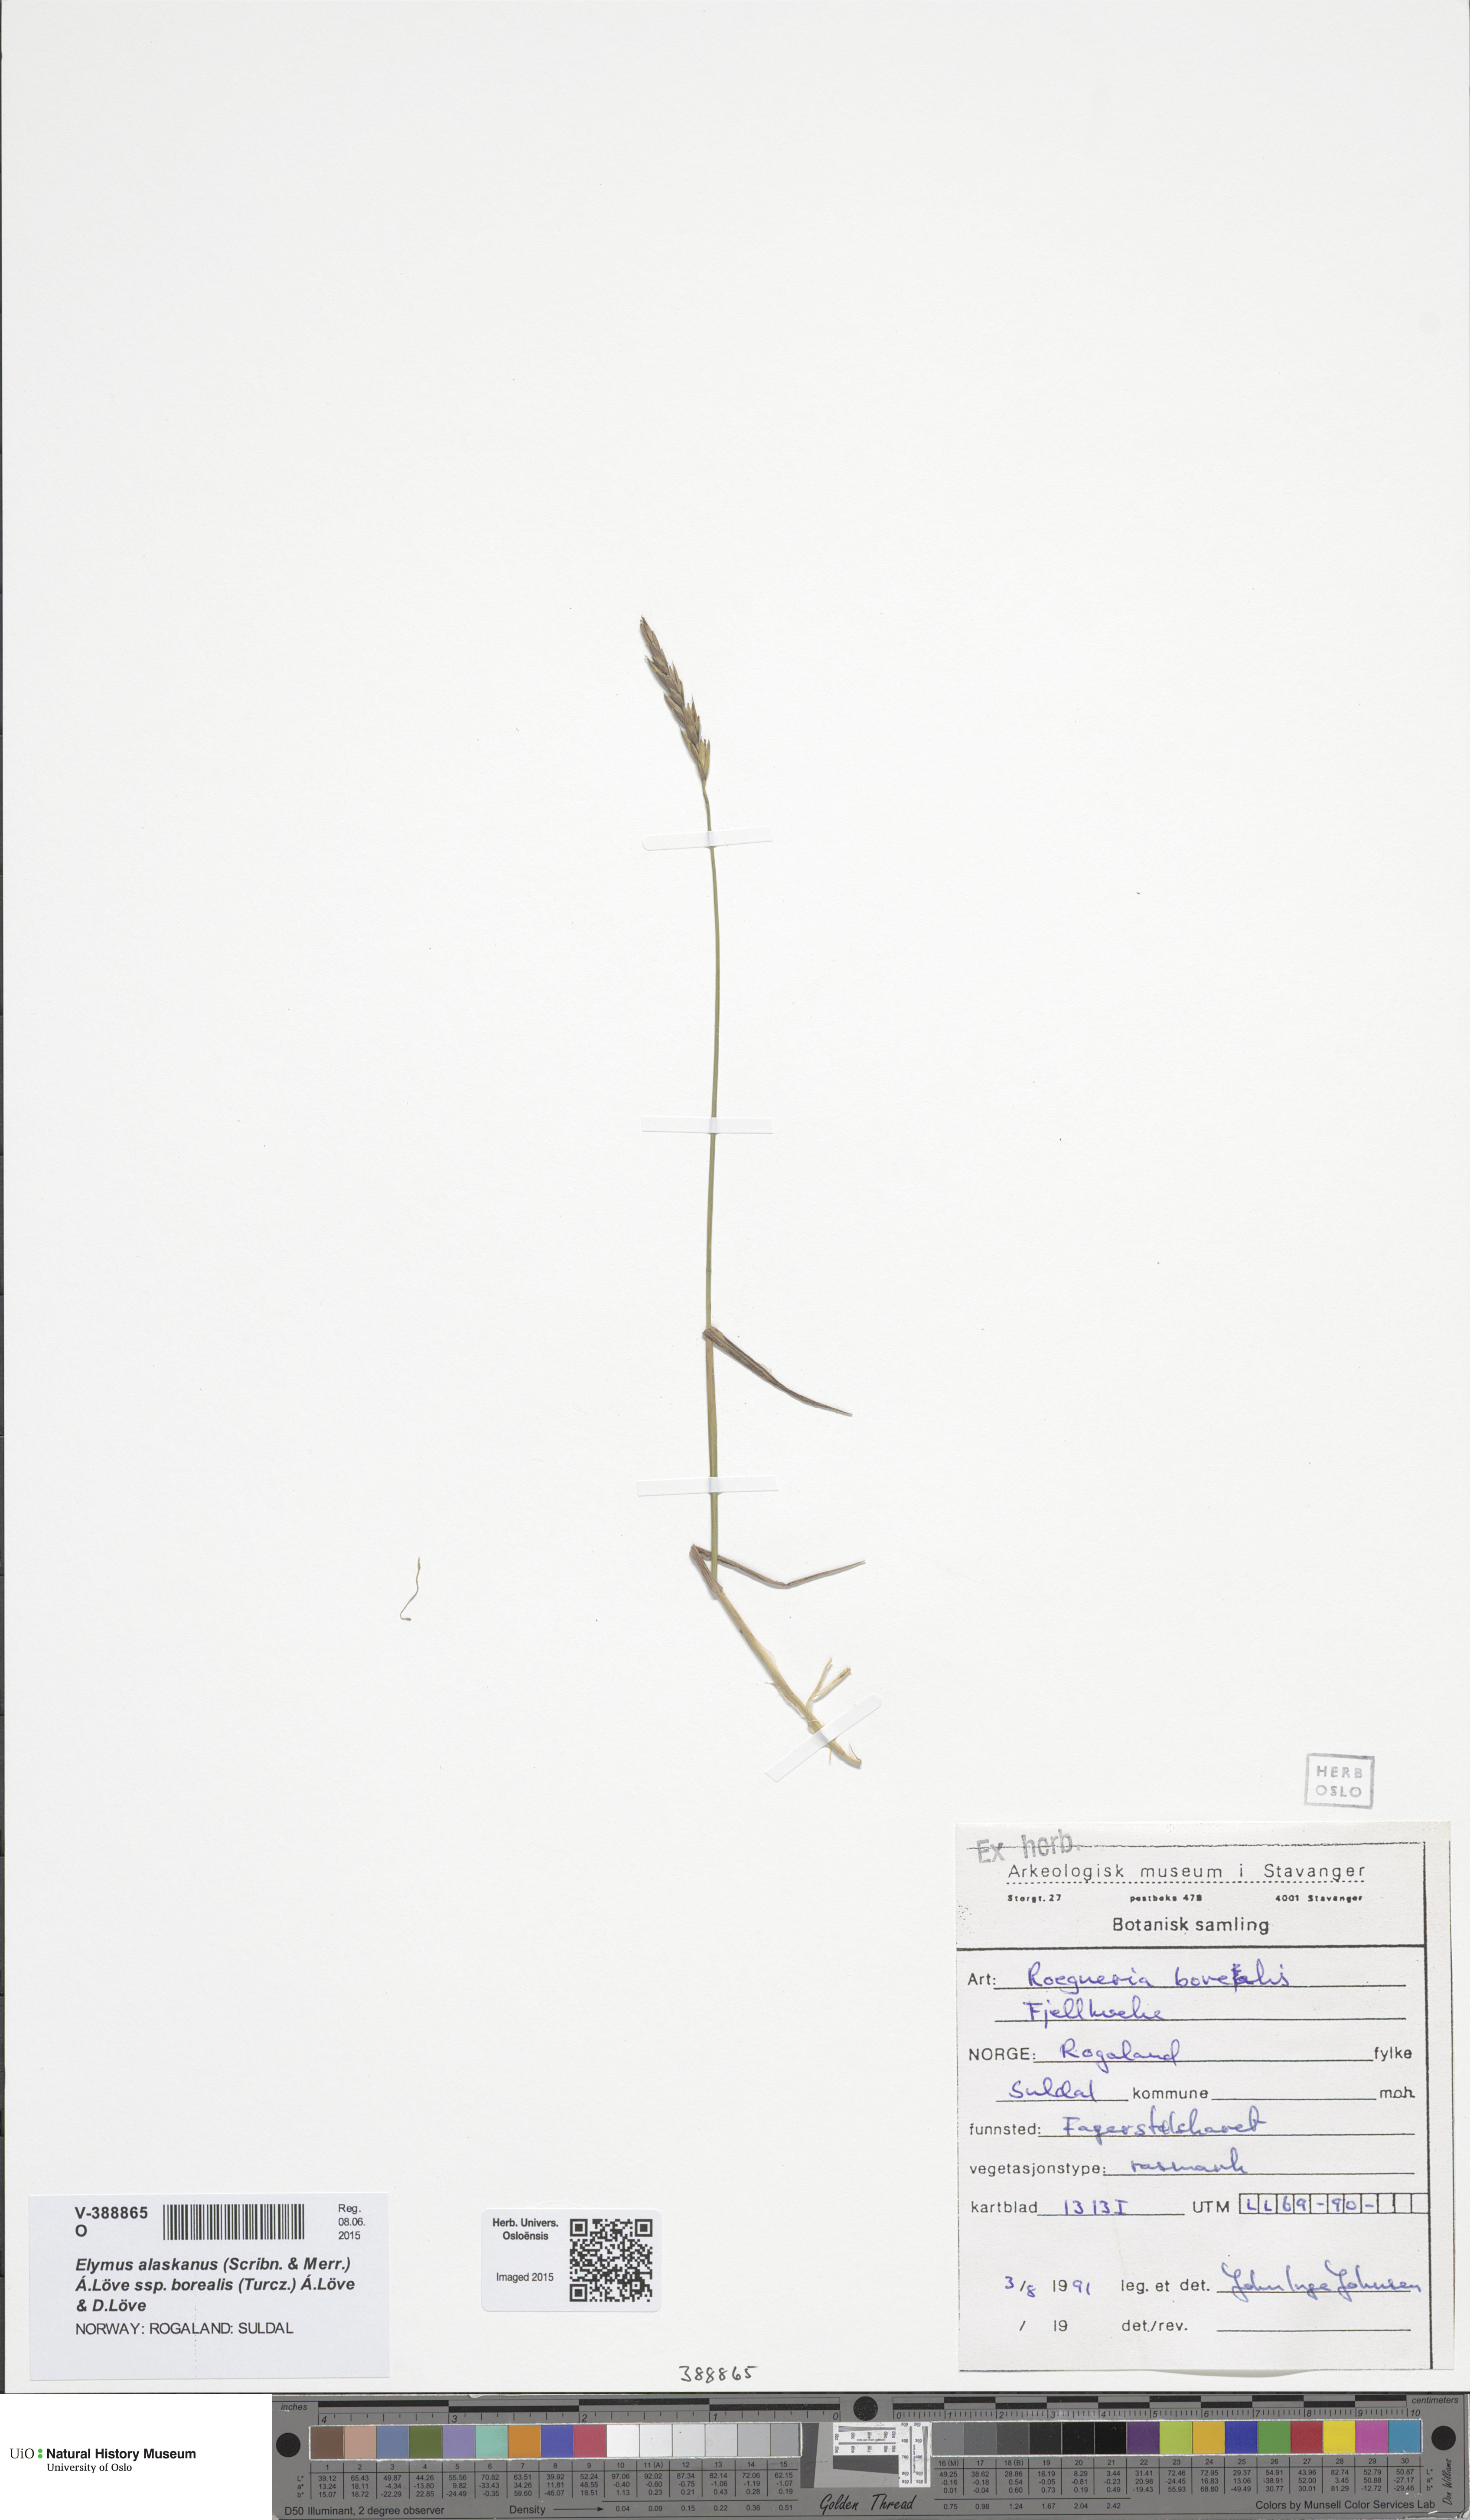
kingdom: Plantae
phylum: Tracheophyta
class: Liliopsida
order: Poales
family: Poaceae
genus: Elymus
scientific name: Elymus macrourus
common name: Northern wheatgrass
